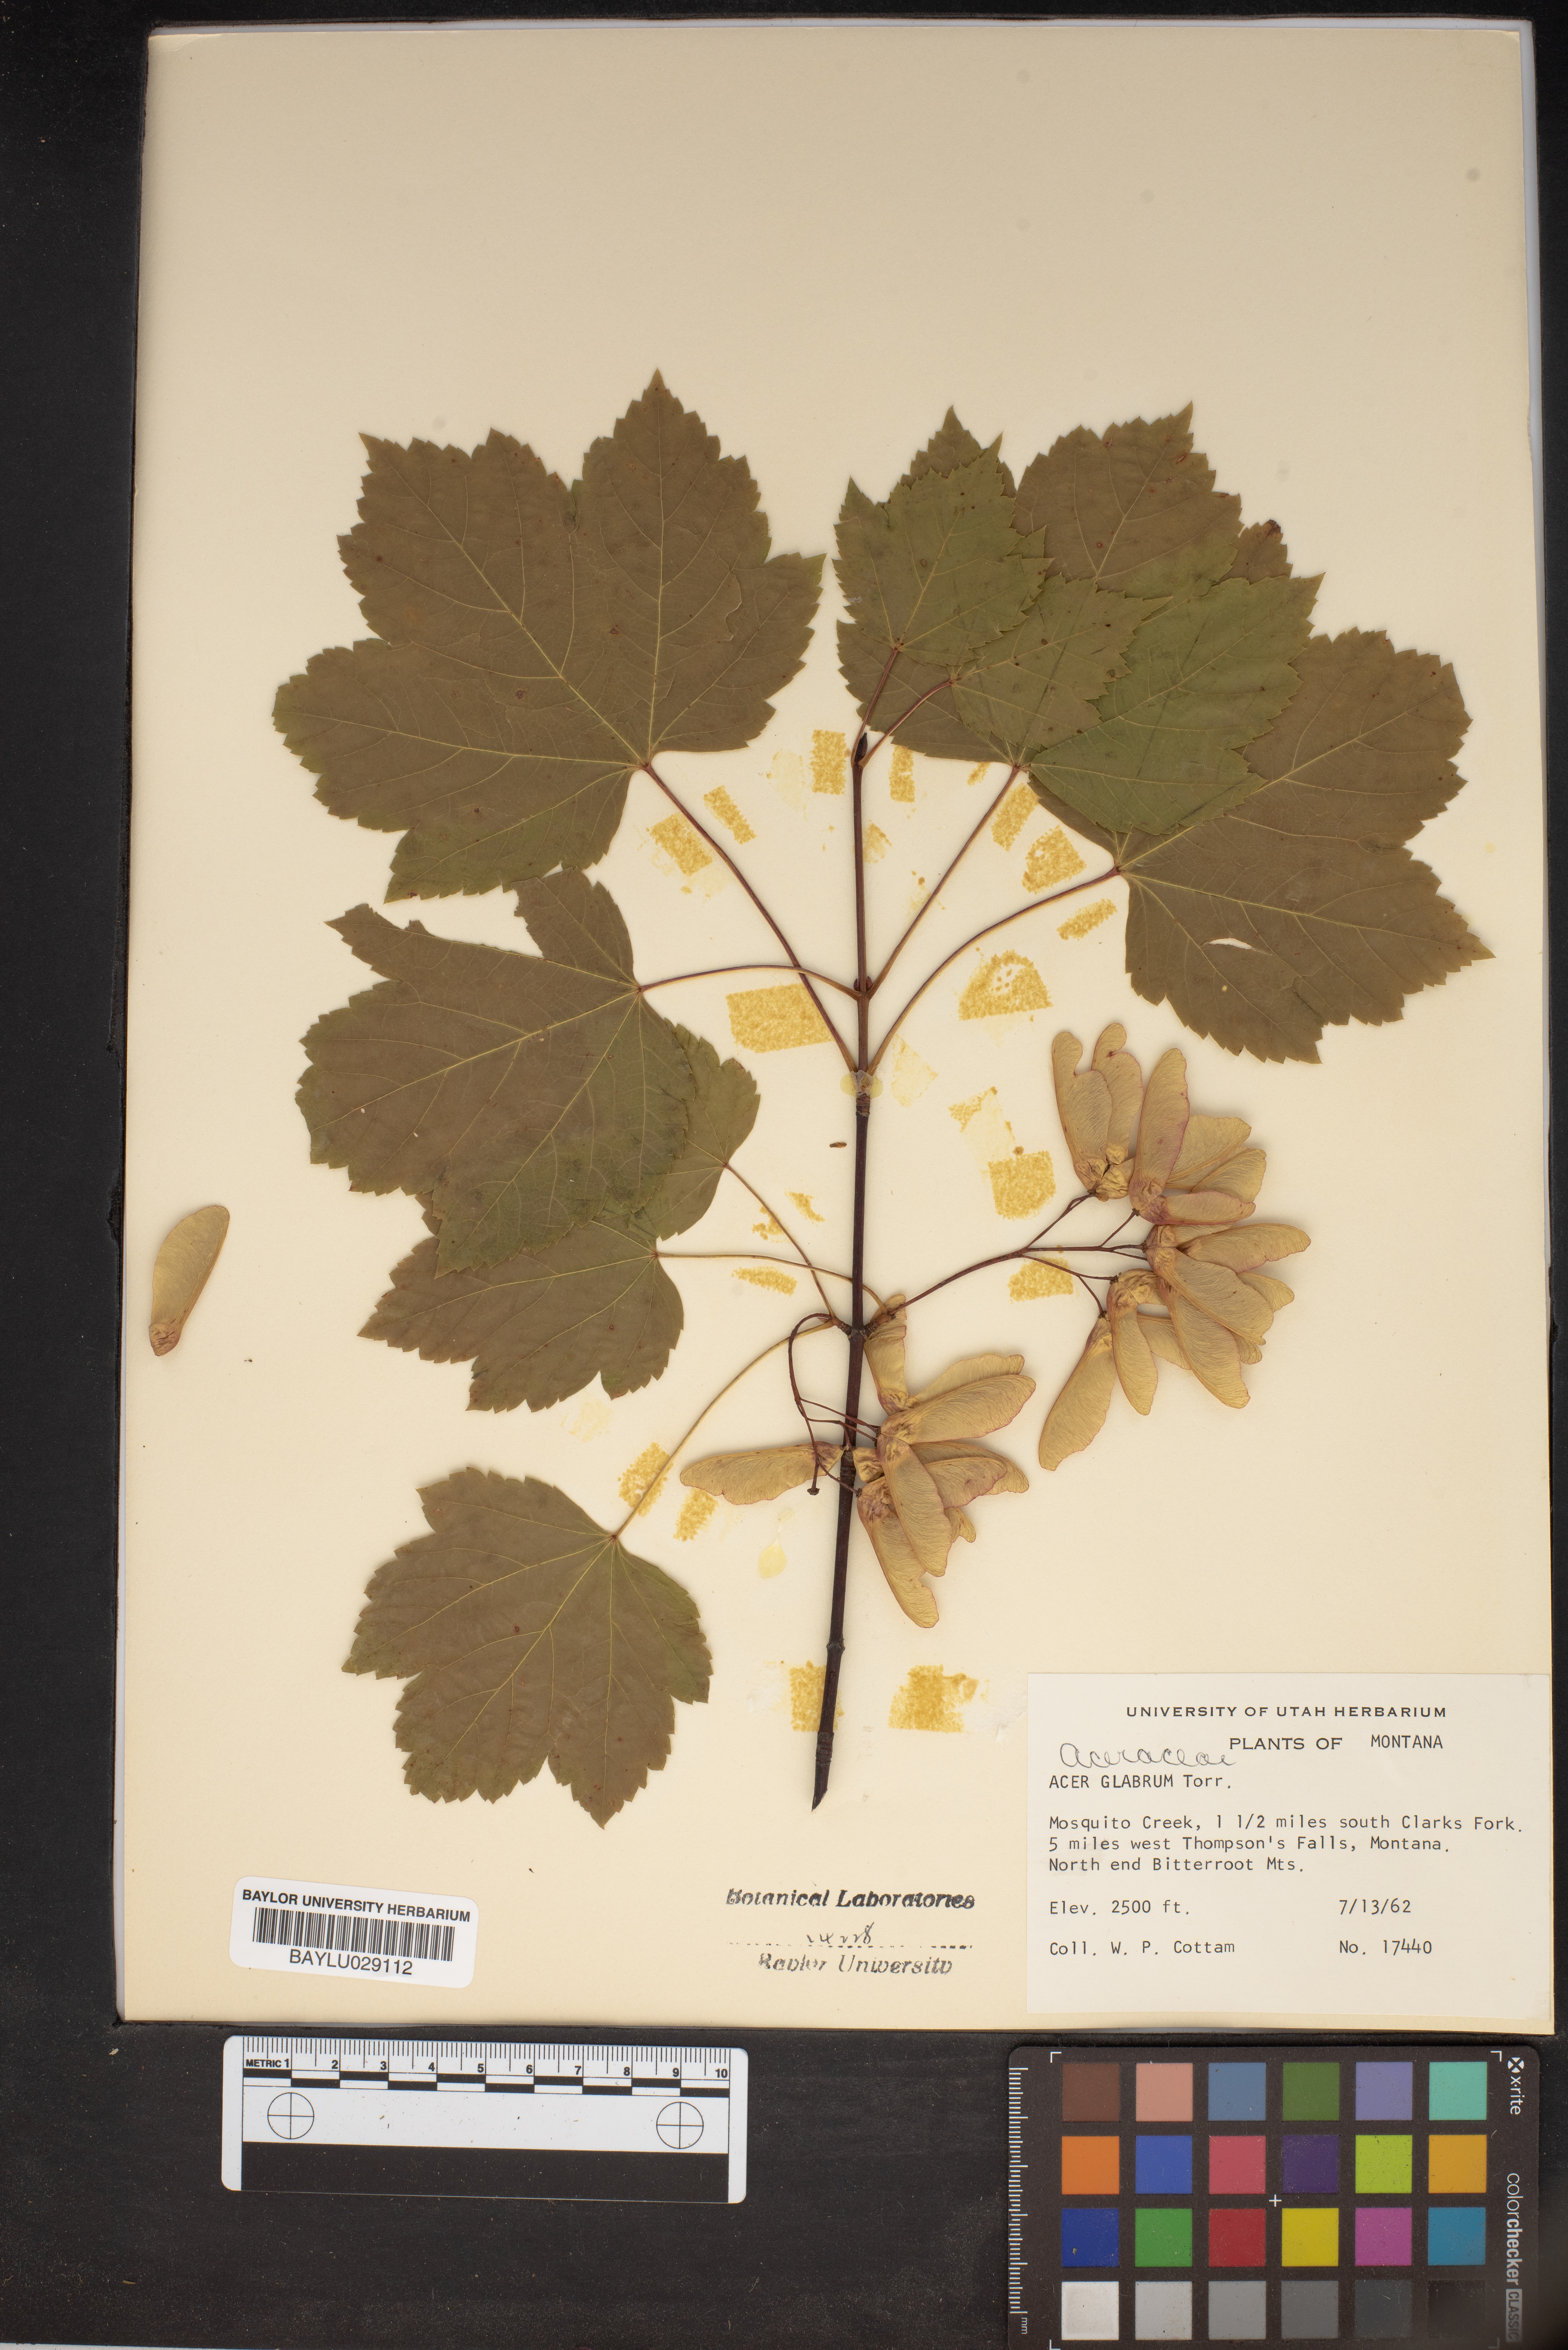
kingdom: Plantae
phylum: Tracheophyta
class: Magnoliopsida
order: Sapindales
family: Sapindaceae
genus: Acer
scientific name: Acer glabrum
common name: Rocky mountain maple
